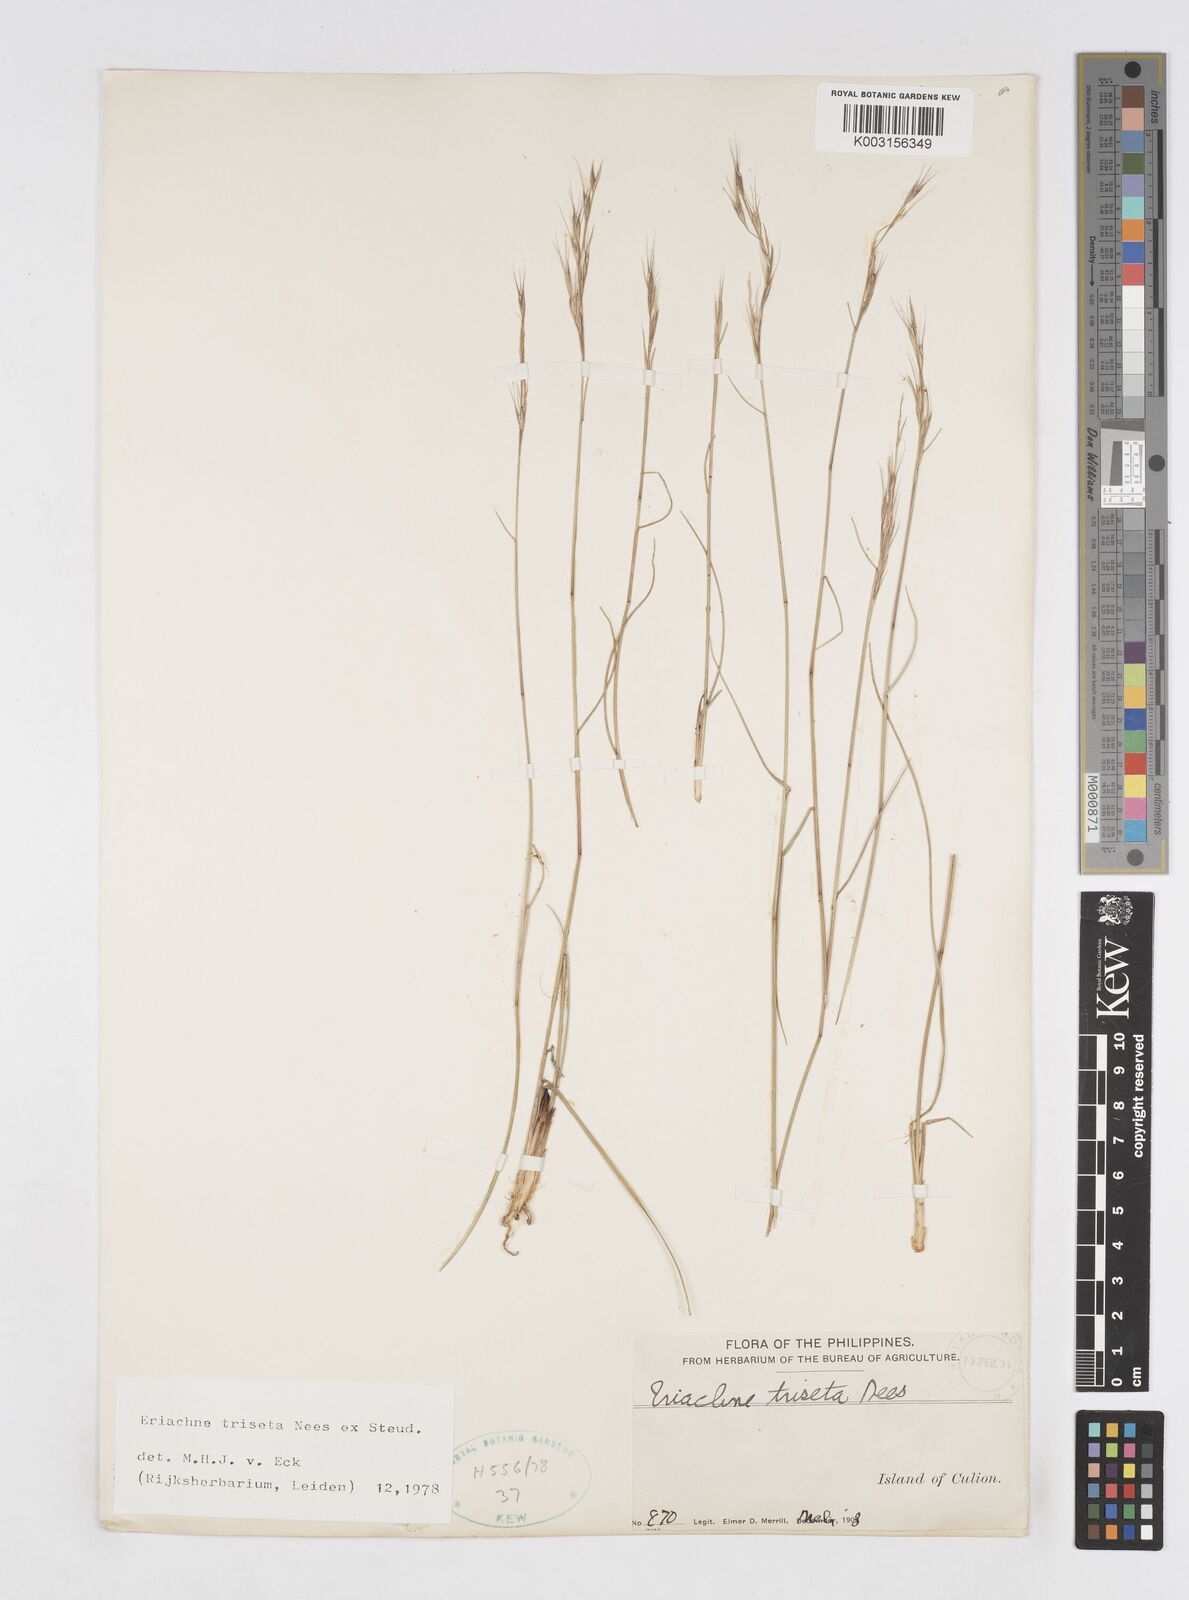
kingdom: Plantae
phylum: Tracheophyta
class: Liliopsida
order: Poales
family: Poaceae
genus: Eriachne
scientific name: Eriachne triseta
